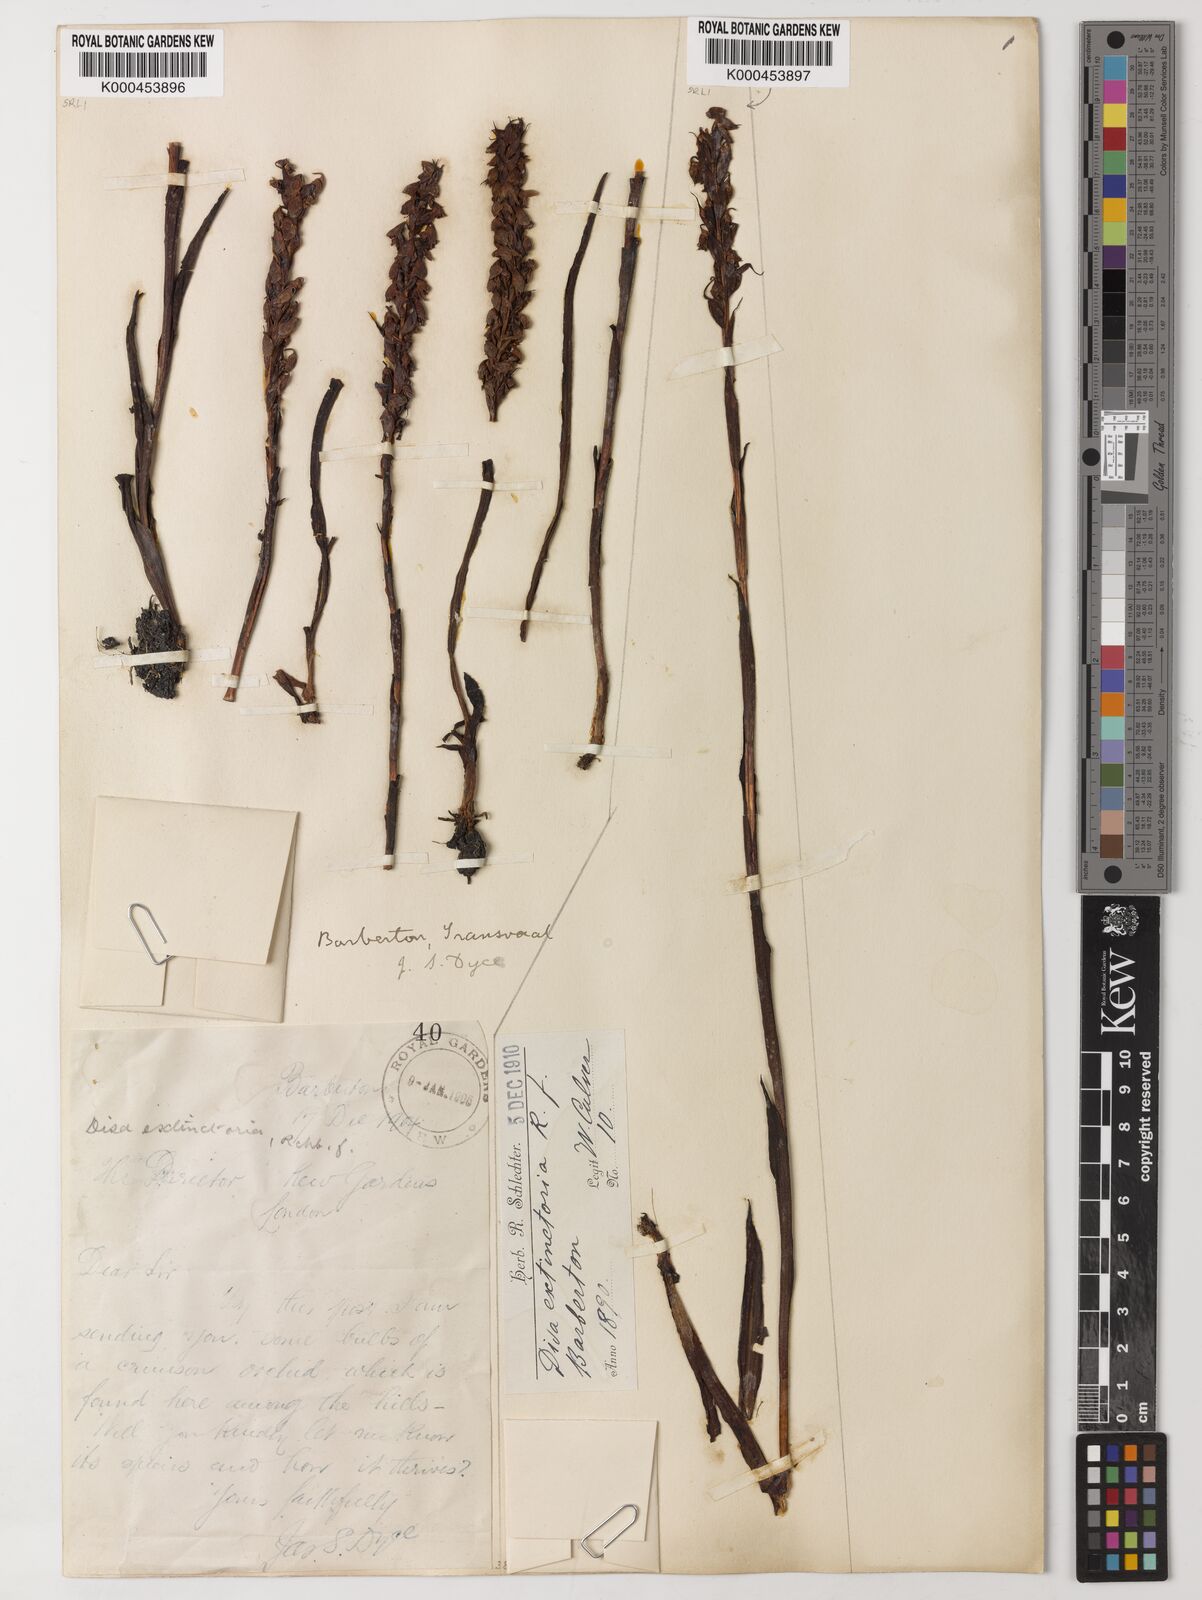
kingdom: Plantae
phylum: Tracheophyta
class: Liliopsida
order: Asparagales
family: Orchidaceae
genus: Disa
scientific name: Disa extinctoria
